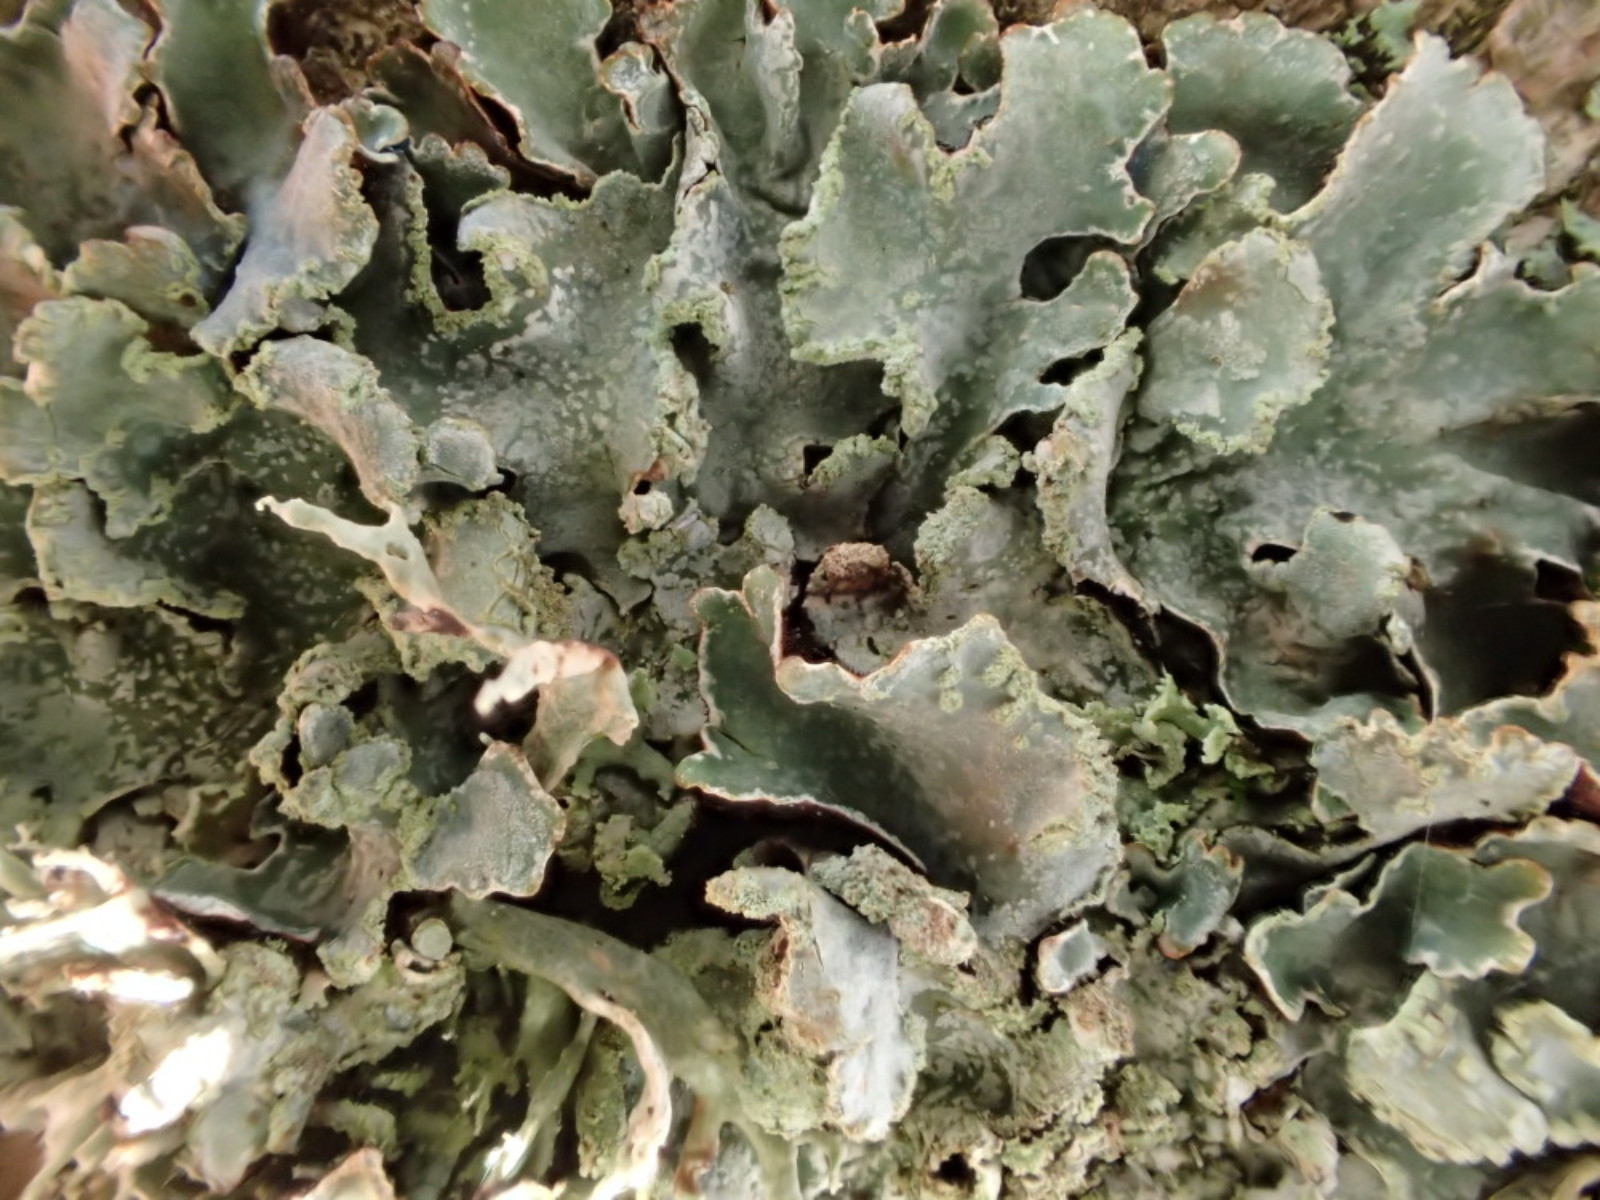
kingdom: Fungi
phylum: Ascomycota
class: Lecanoromycetes
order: Lecanorales
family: Parmeliaceae
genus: Parmelia
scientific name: Parmelia sulcata
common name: rynket skållav
